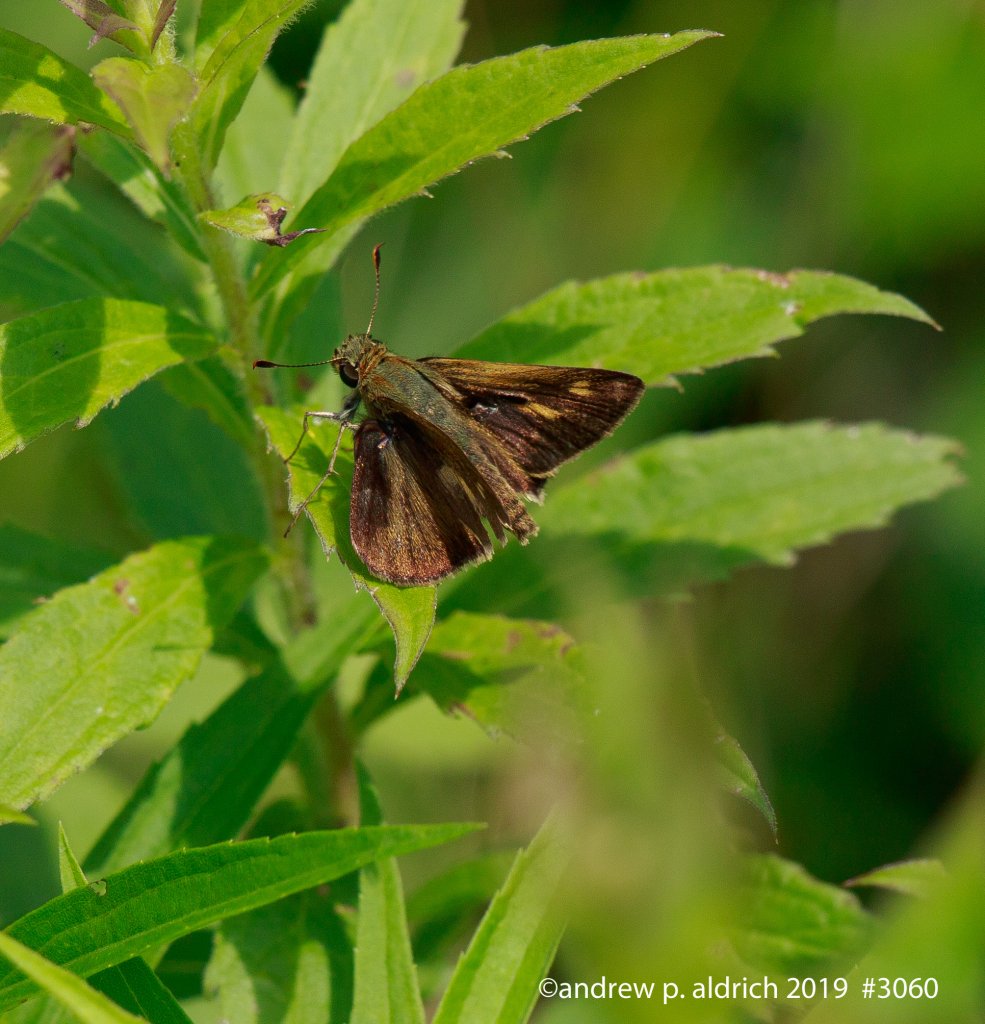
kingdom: Animalia
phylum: Arthropoda
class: Insecta
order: Lepidoptera
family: Hesperiidae
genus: Polites
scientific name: Polites themistocles
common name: Tawny-edged Skipper
